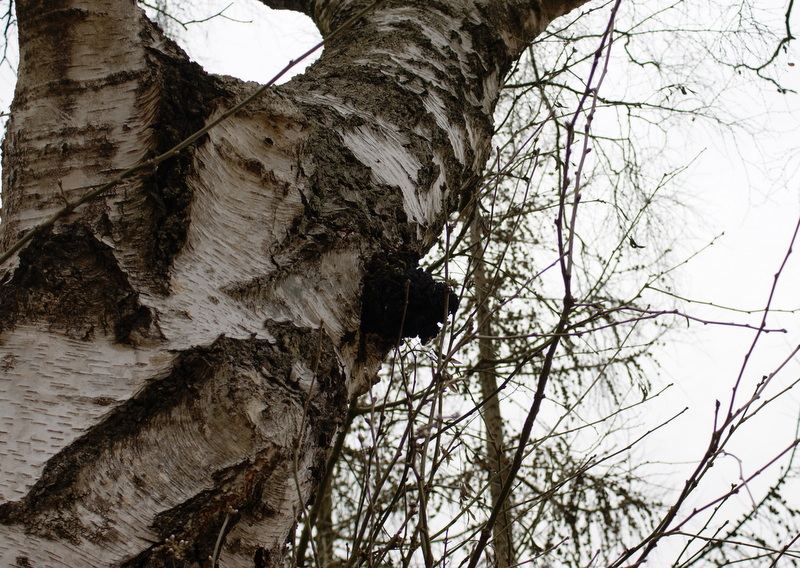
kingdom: Fungi
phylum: Basidiomycota
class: Agaricomycetes
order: Hymenochaetales
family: Hymenochaetaceae
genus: Inonotus
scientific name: Inonotus obliquus
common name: birke-spejlporesvamp
